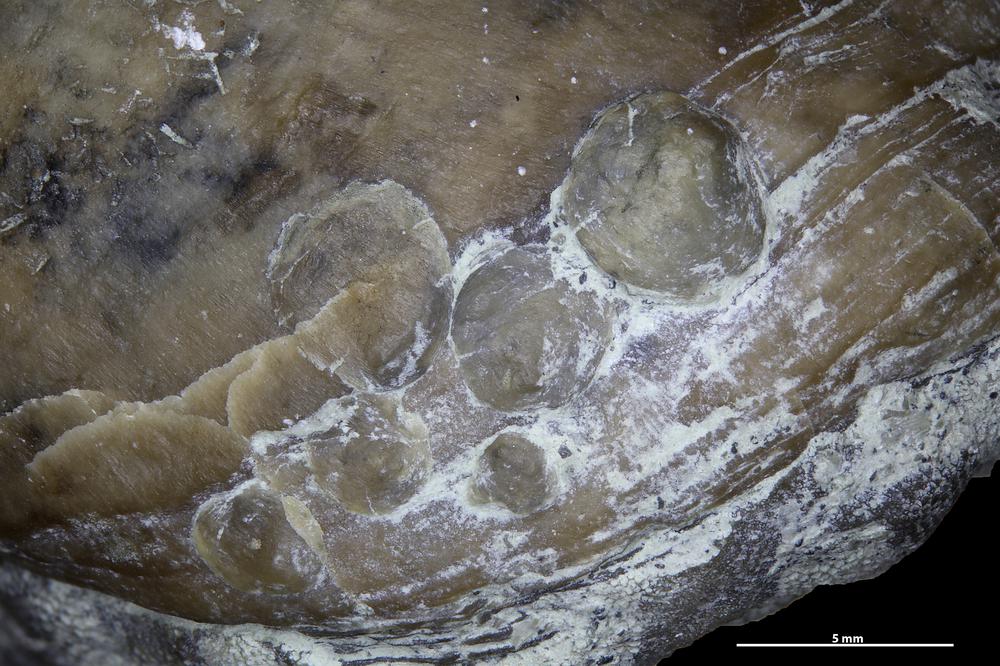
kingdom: Animalia
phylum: Brachiopoda
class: Craniata
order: Craniida
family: Craniidae
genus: Petrocrania
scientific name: Petrocrania
